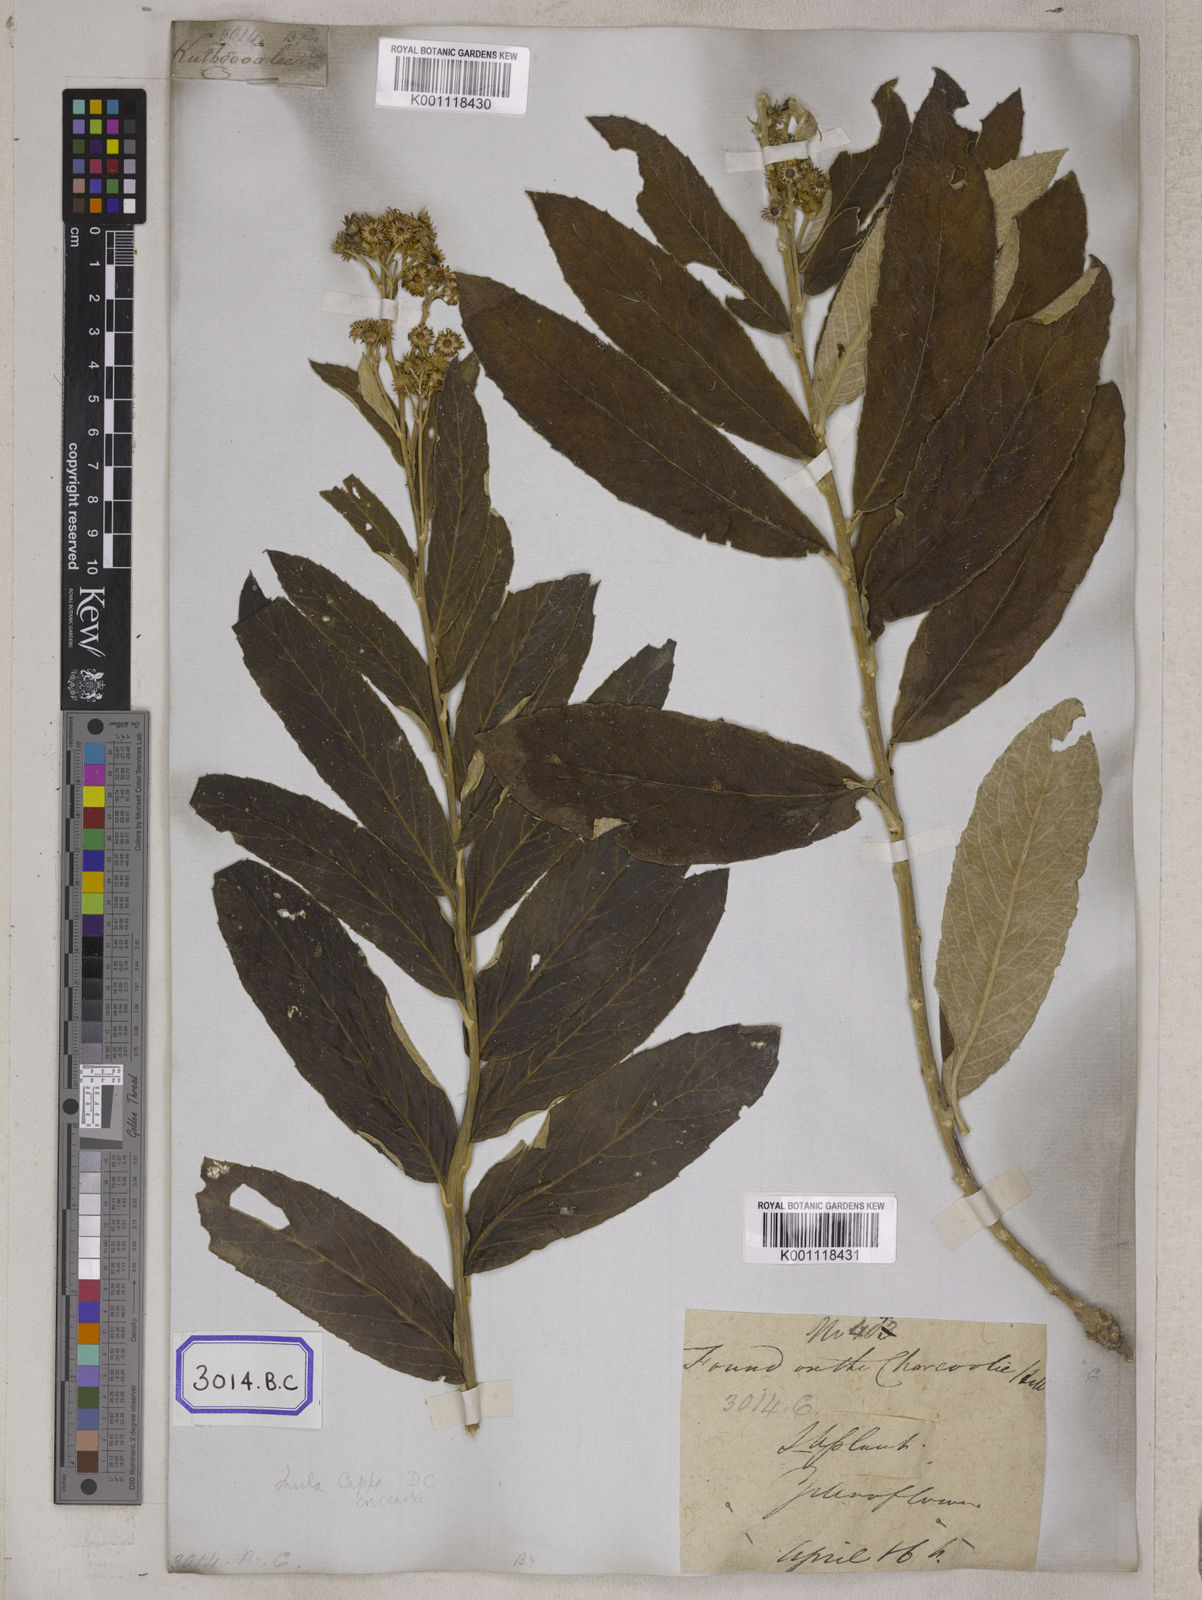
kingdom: Plantae
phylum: Tracheophyta
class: Magnoliopsida
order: Asterales
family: Asteraceae
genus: Duhaldea
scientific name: Duhaldea cappa
